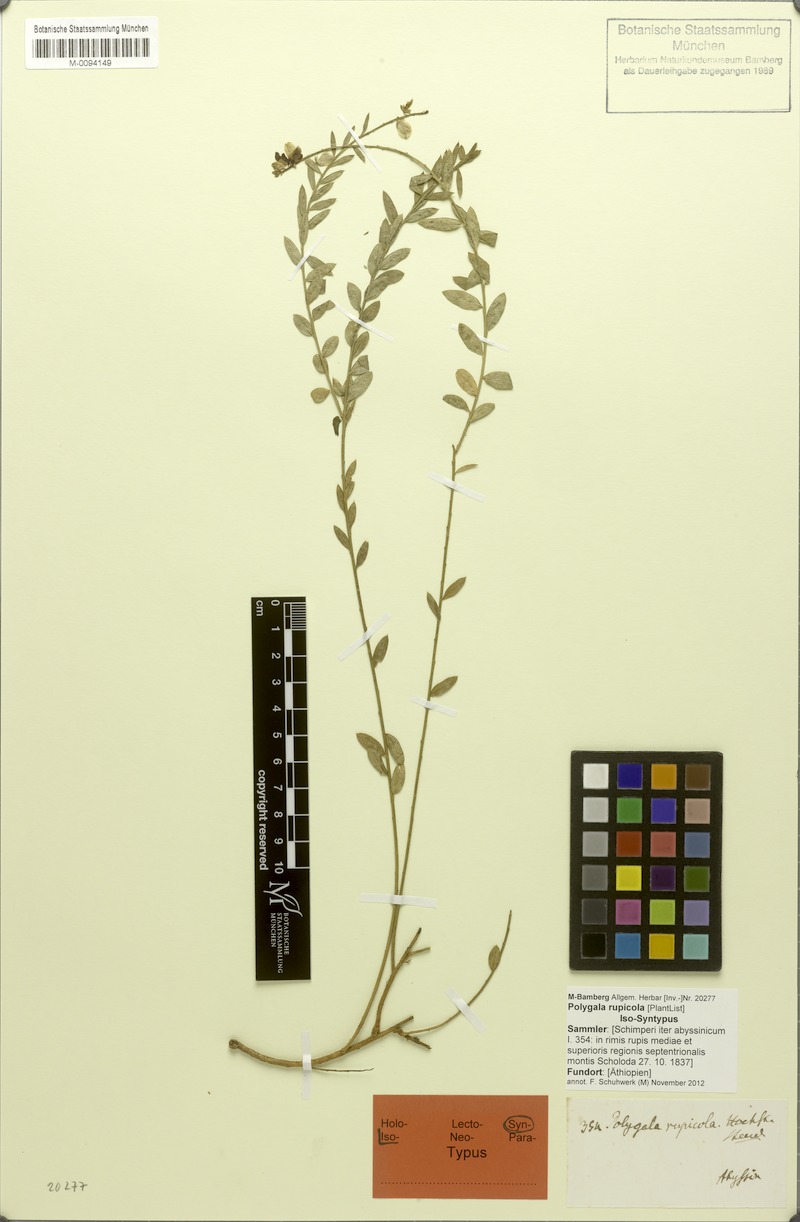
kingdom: Plantae
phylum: Tracheophyta
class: Magnoliopsida
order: Fabales
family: Polygalaceae
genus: Polygala
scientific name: Polygala rupicola
